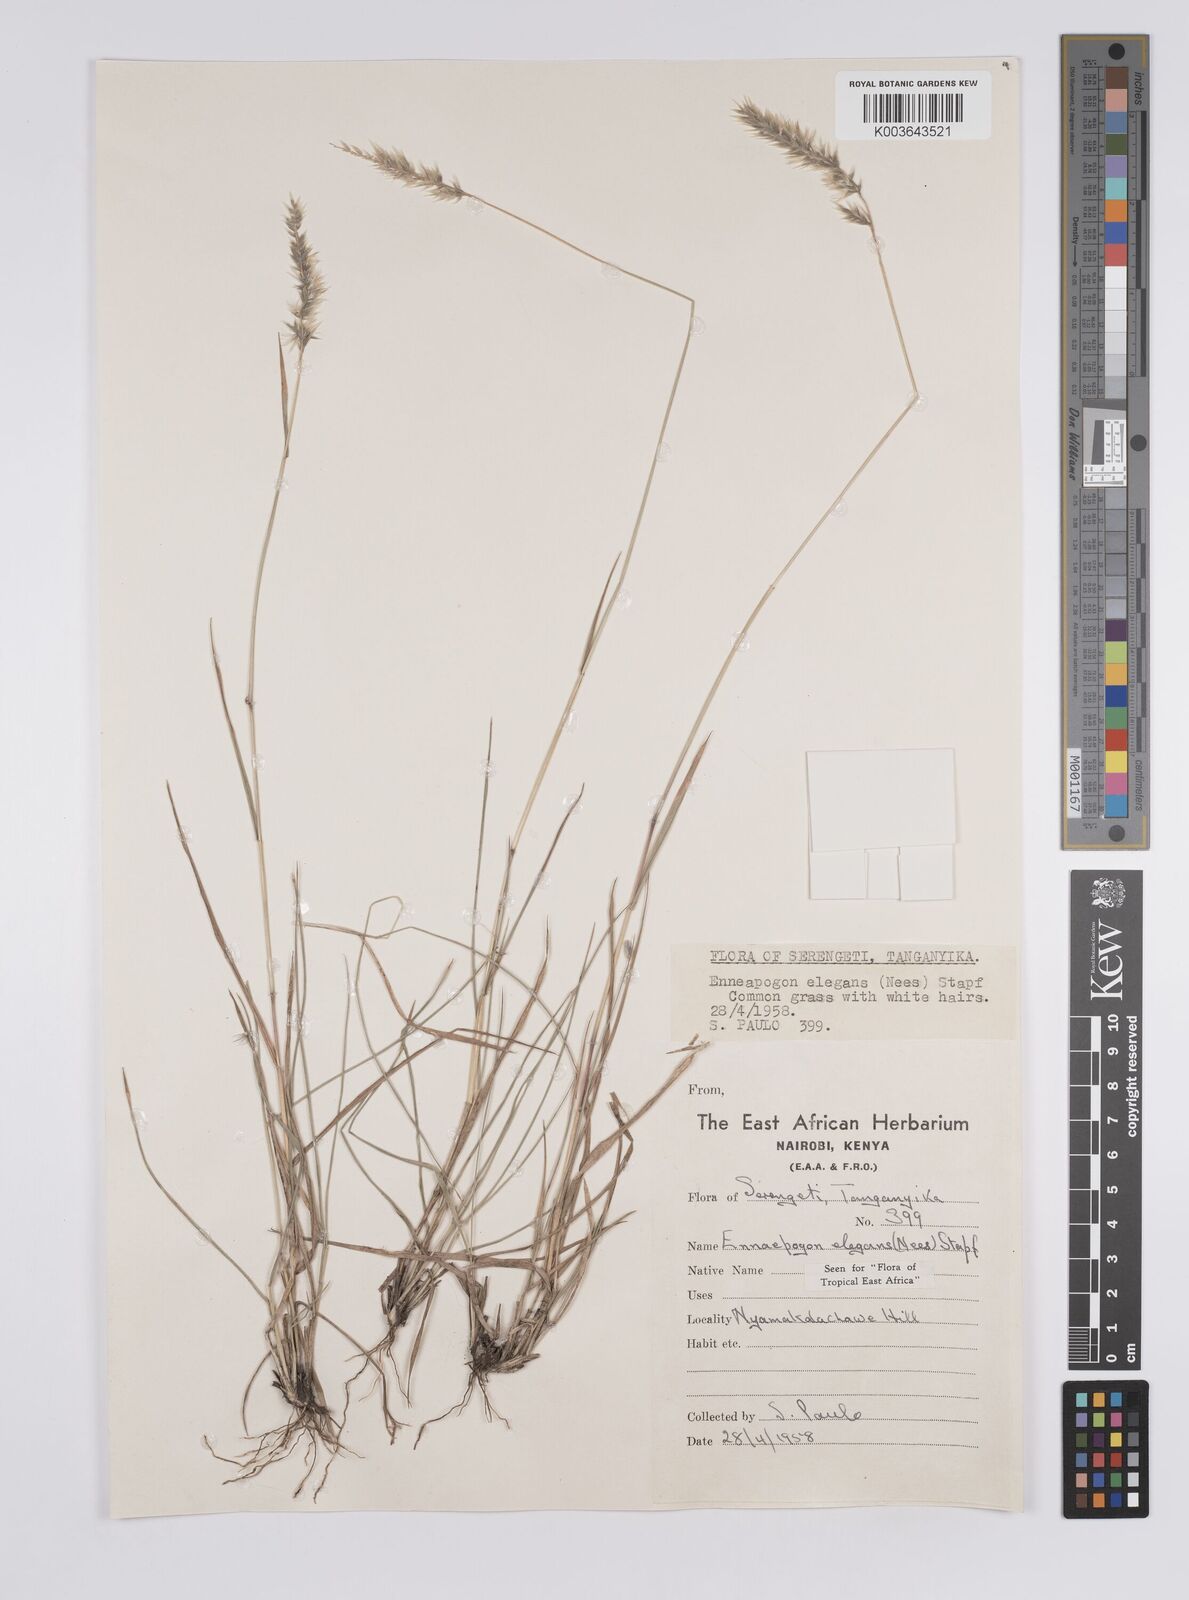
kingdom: Plantae
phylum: Tracheophyta
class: Liliopsida
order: Poales
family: Poaceae
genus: Enneapogon
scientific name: Enneapogon persicus
